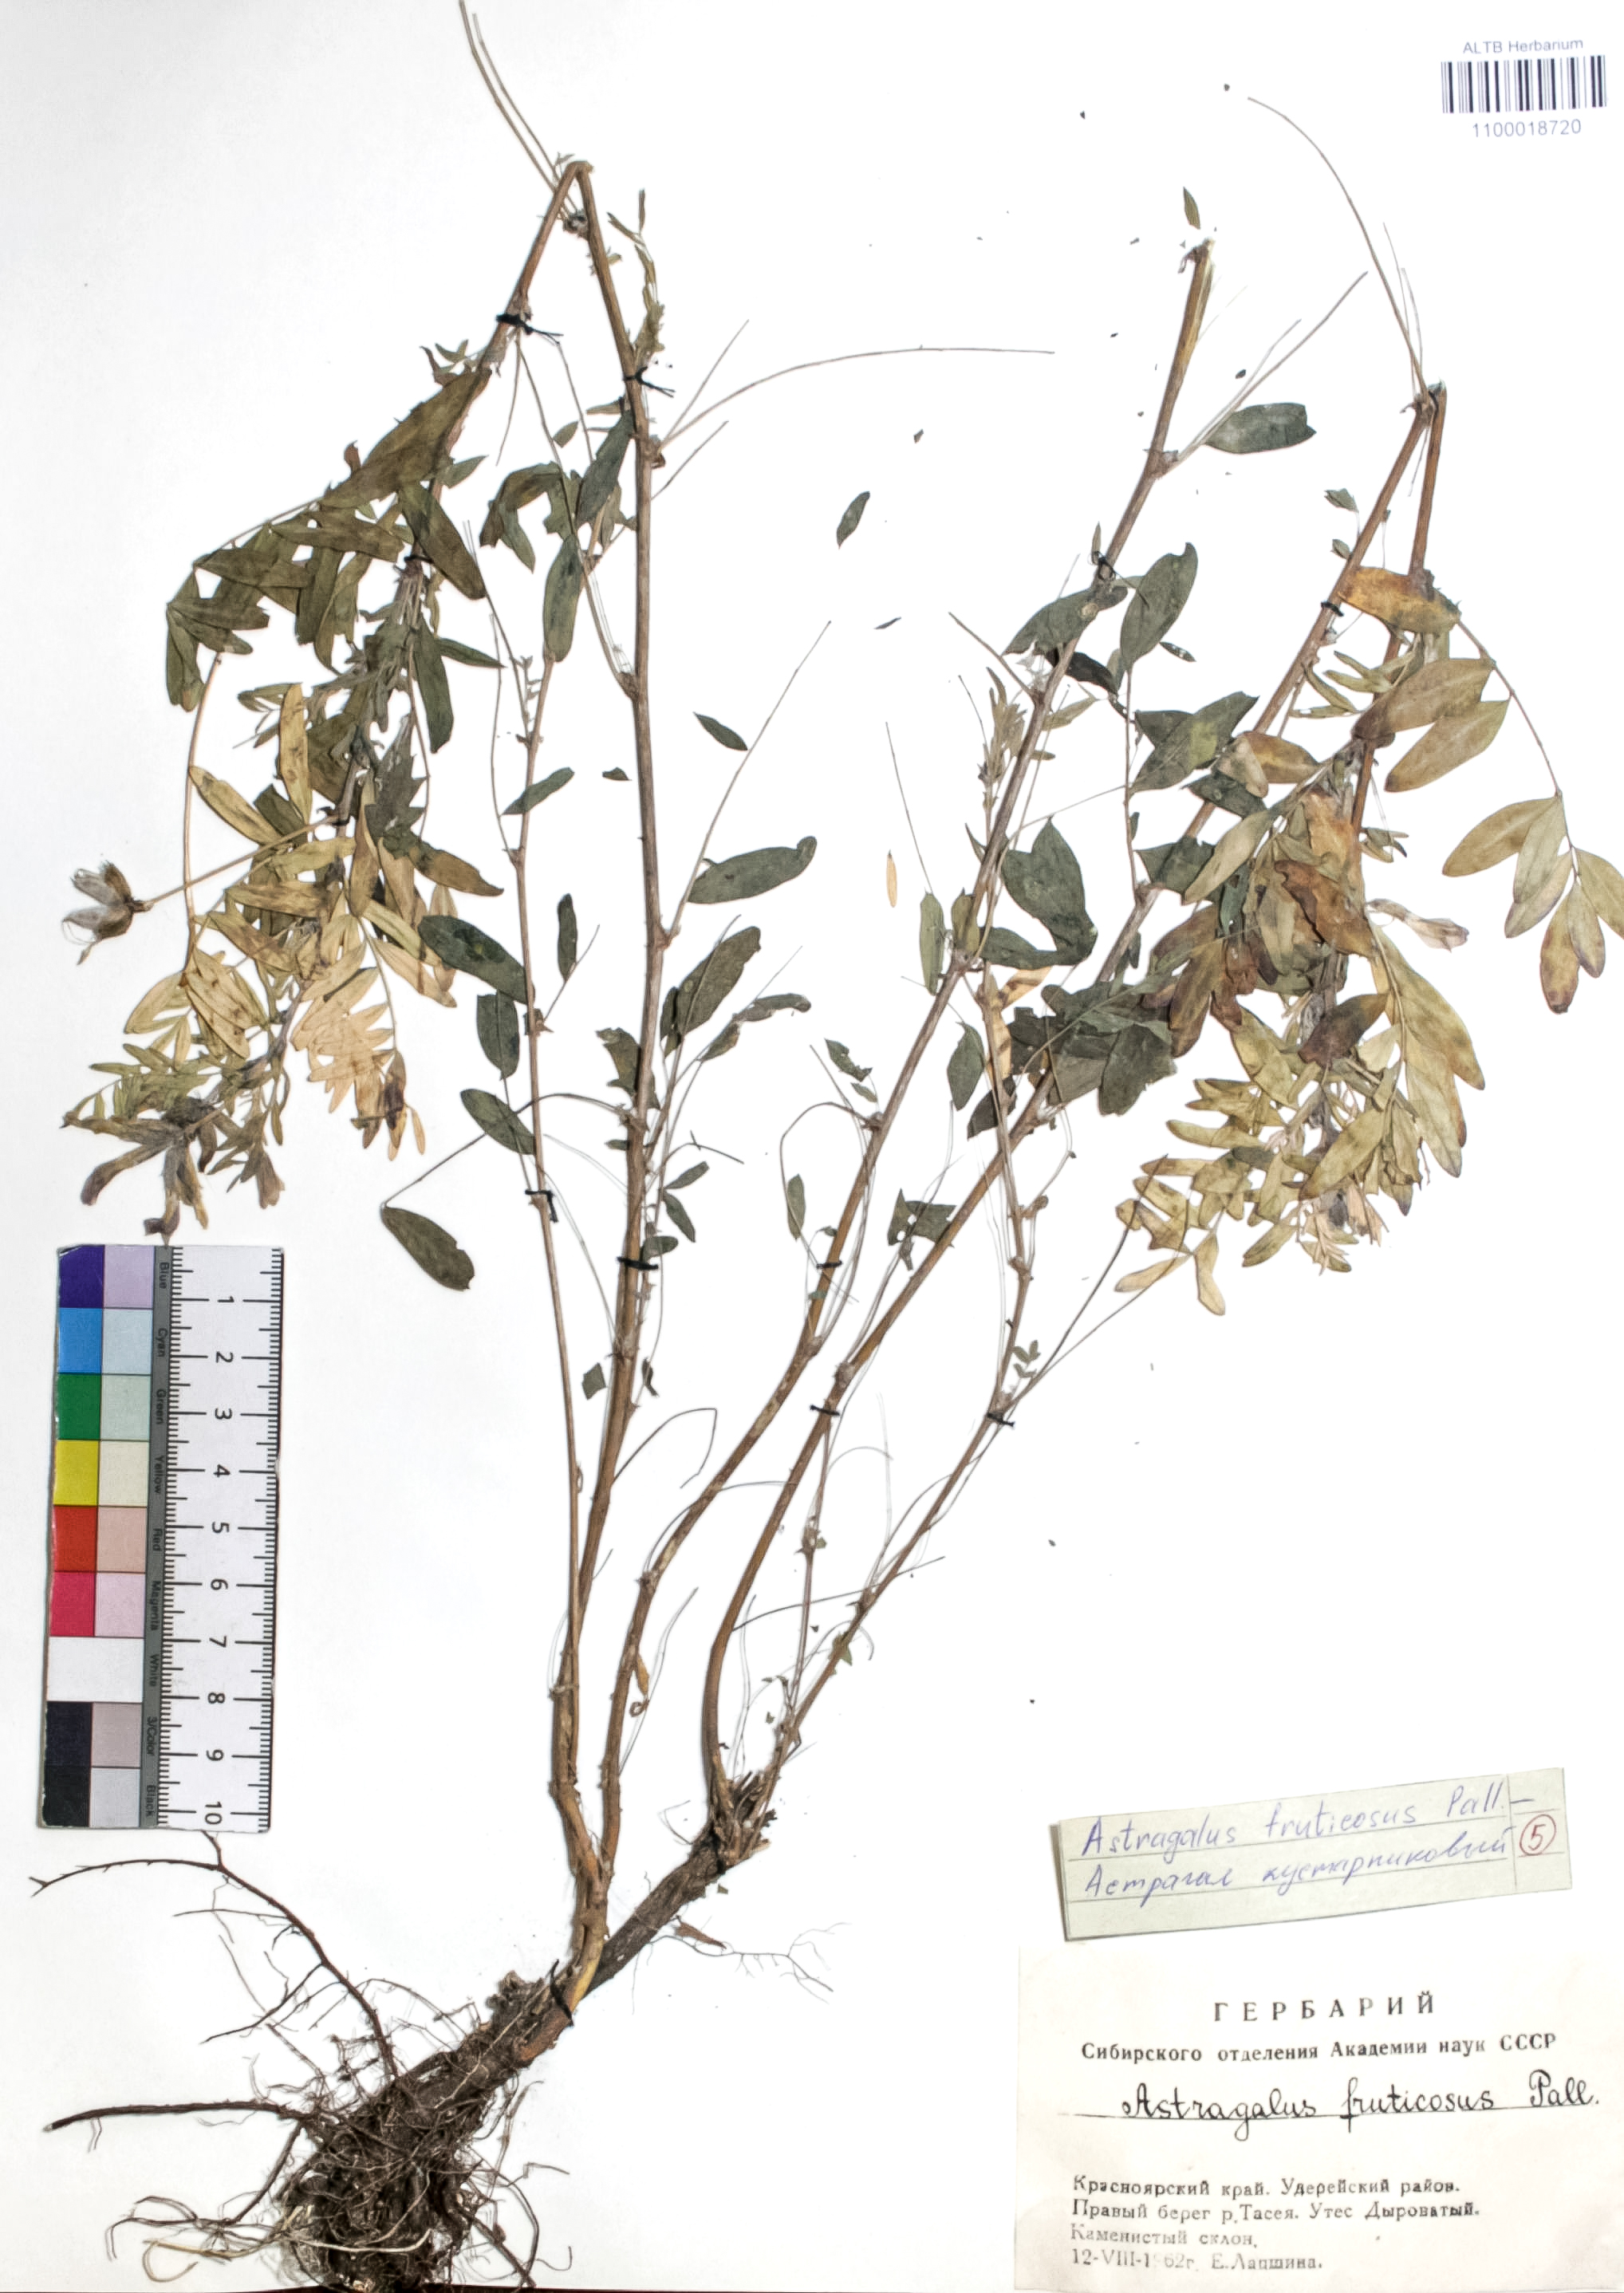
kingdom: Plantae
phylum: Tracheophyta
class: Magnoliopsida
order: Fabales
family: Fabaceae
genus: Astragalus
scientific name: Astragalus syriacus
